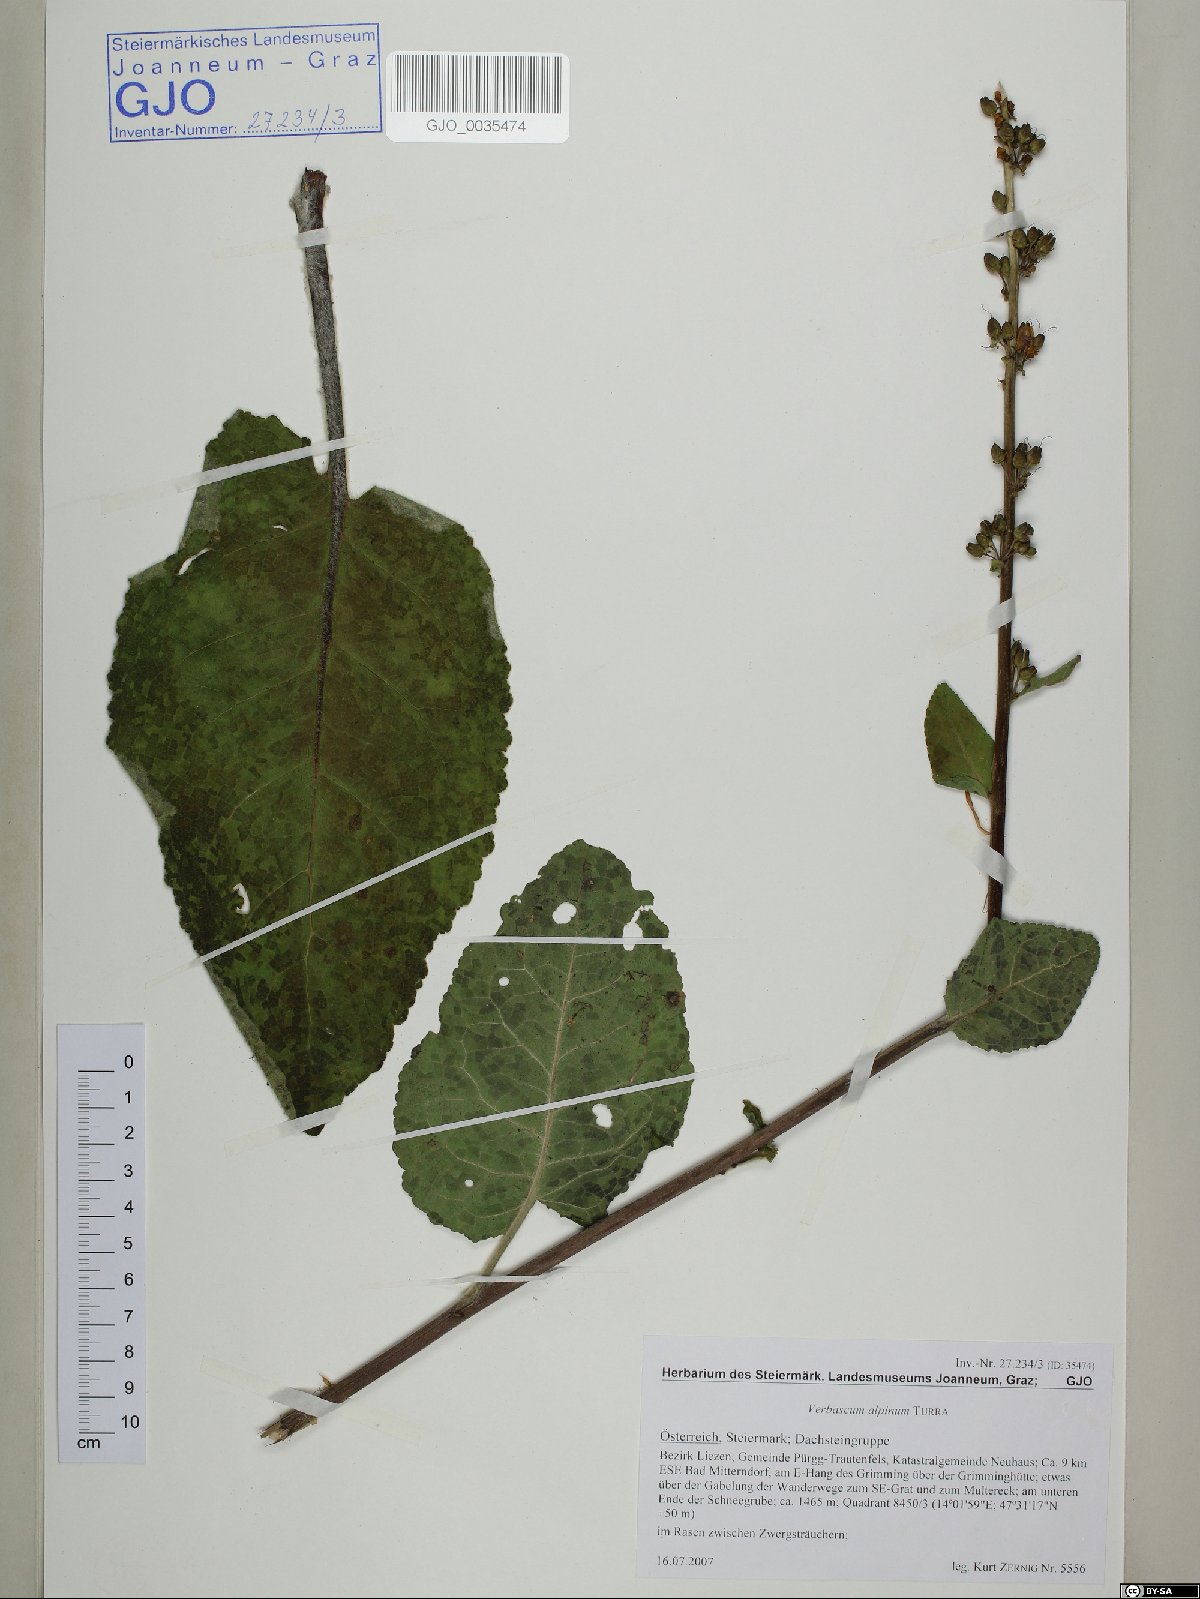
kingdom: Plantae
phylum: Tracheophyta
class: Magnoliopsida
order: Lamiales
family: Scrophulariaceae
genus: Verbascum
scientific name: Verbascum alpinum
